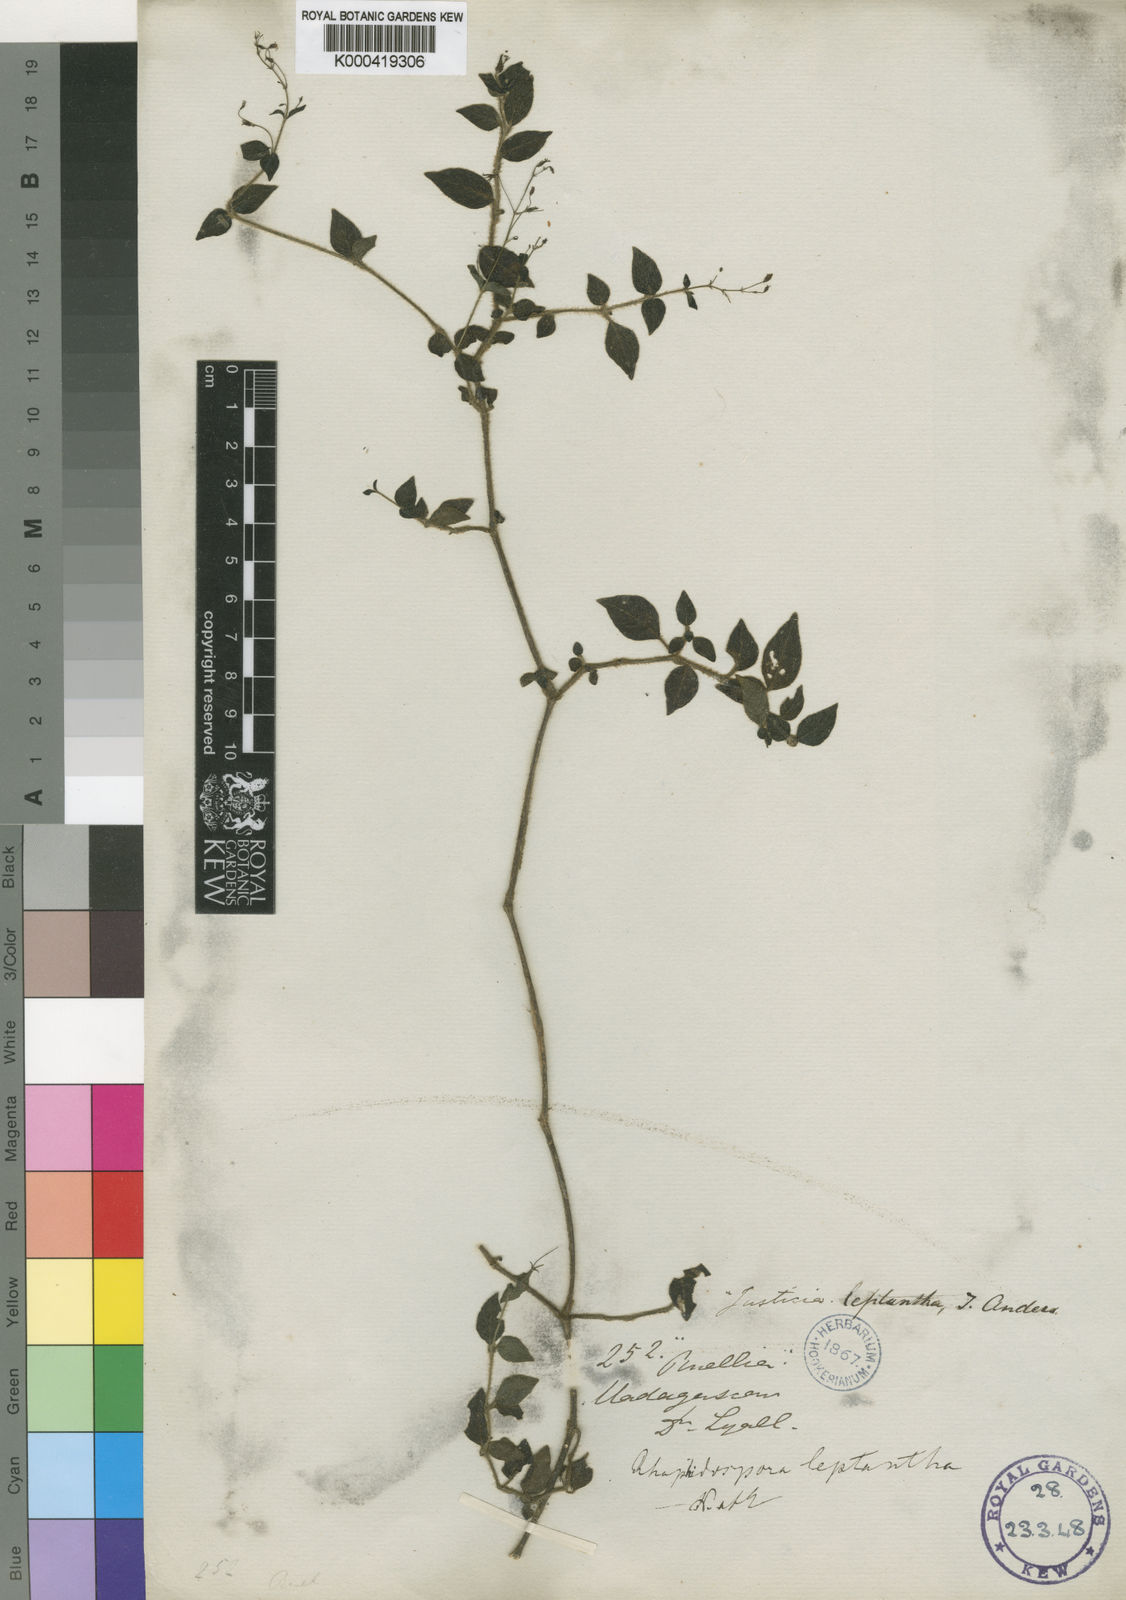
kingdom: Plantae
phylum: Tracheophyta
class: Magnoliopsida
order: Lamiales
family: Acanthaceae
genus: Isoglossa
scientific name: Isoglossa gracillima
